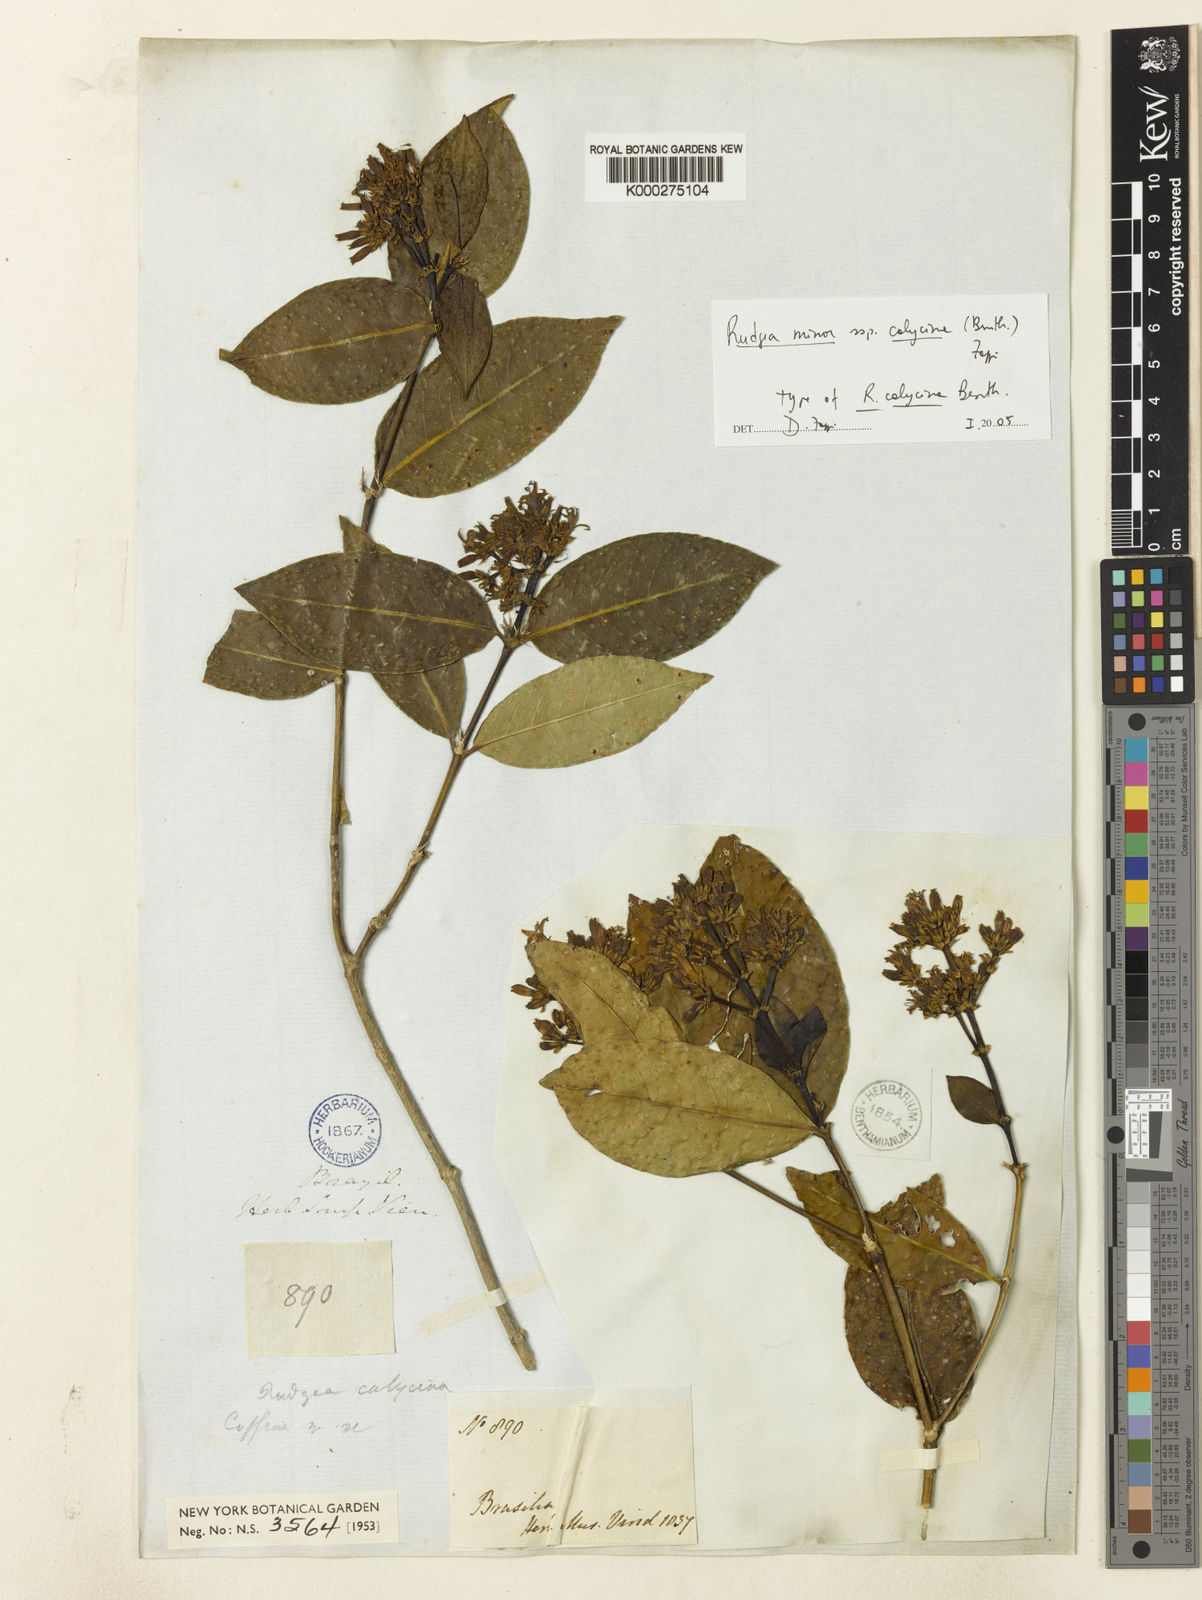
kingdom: Plantae
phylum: Tracheophyta
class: Magnoliopsida
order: Gentianales
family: Rubiaceae
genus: Rudgea
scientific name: Rudgea minor
